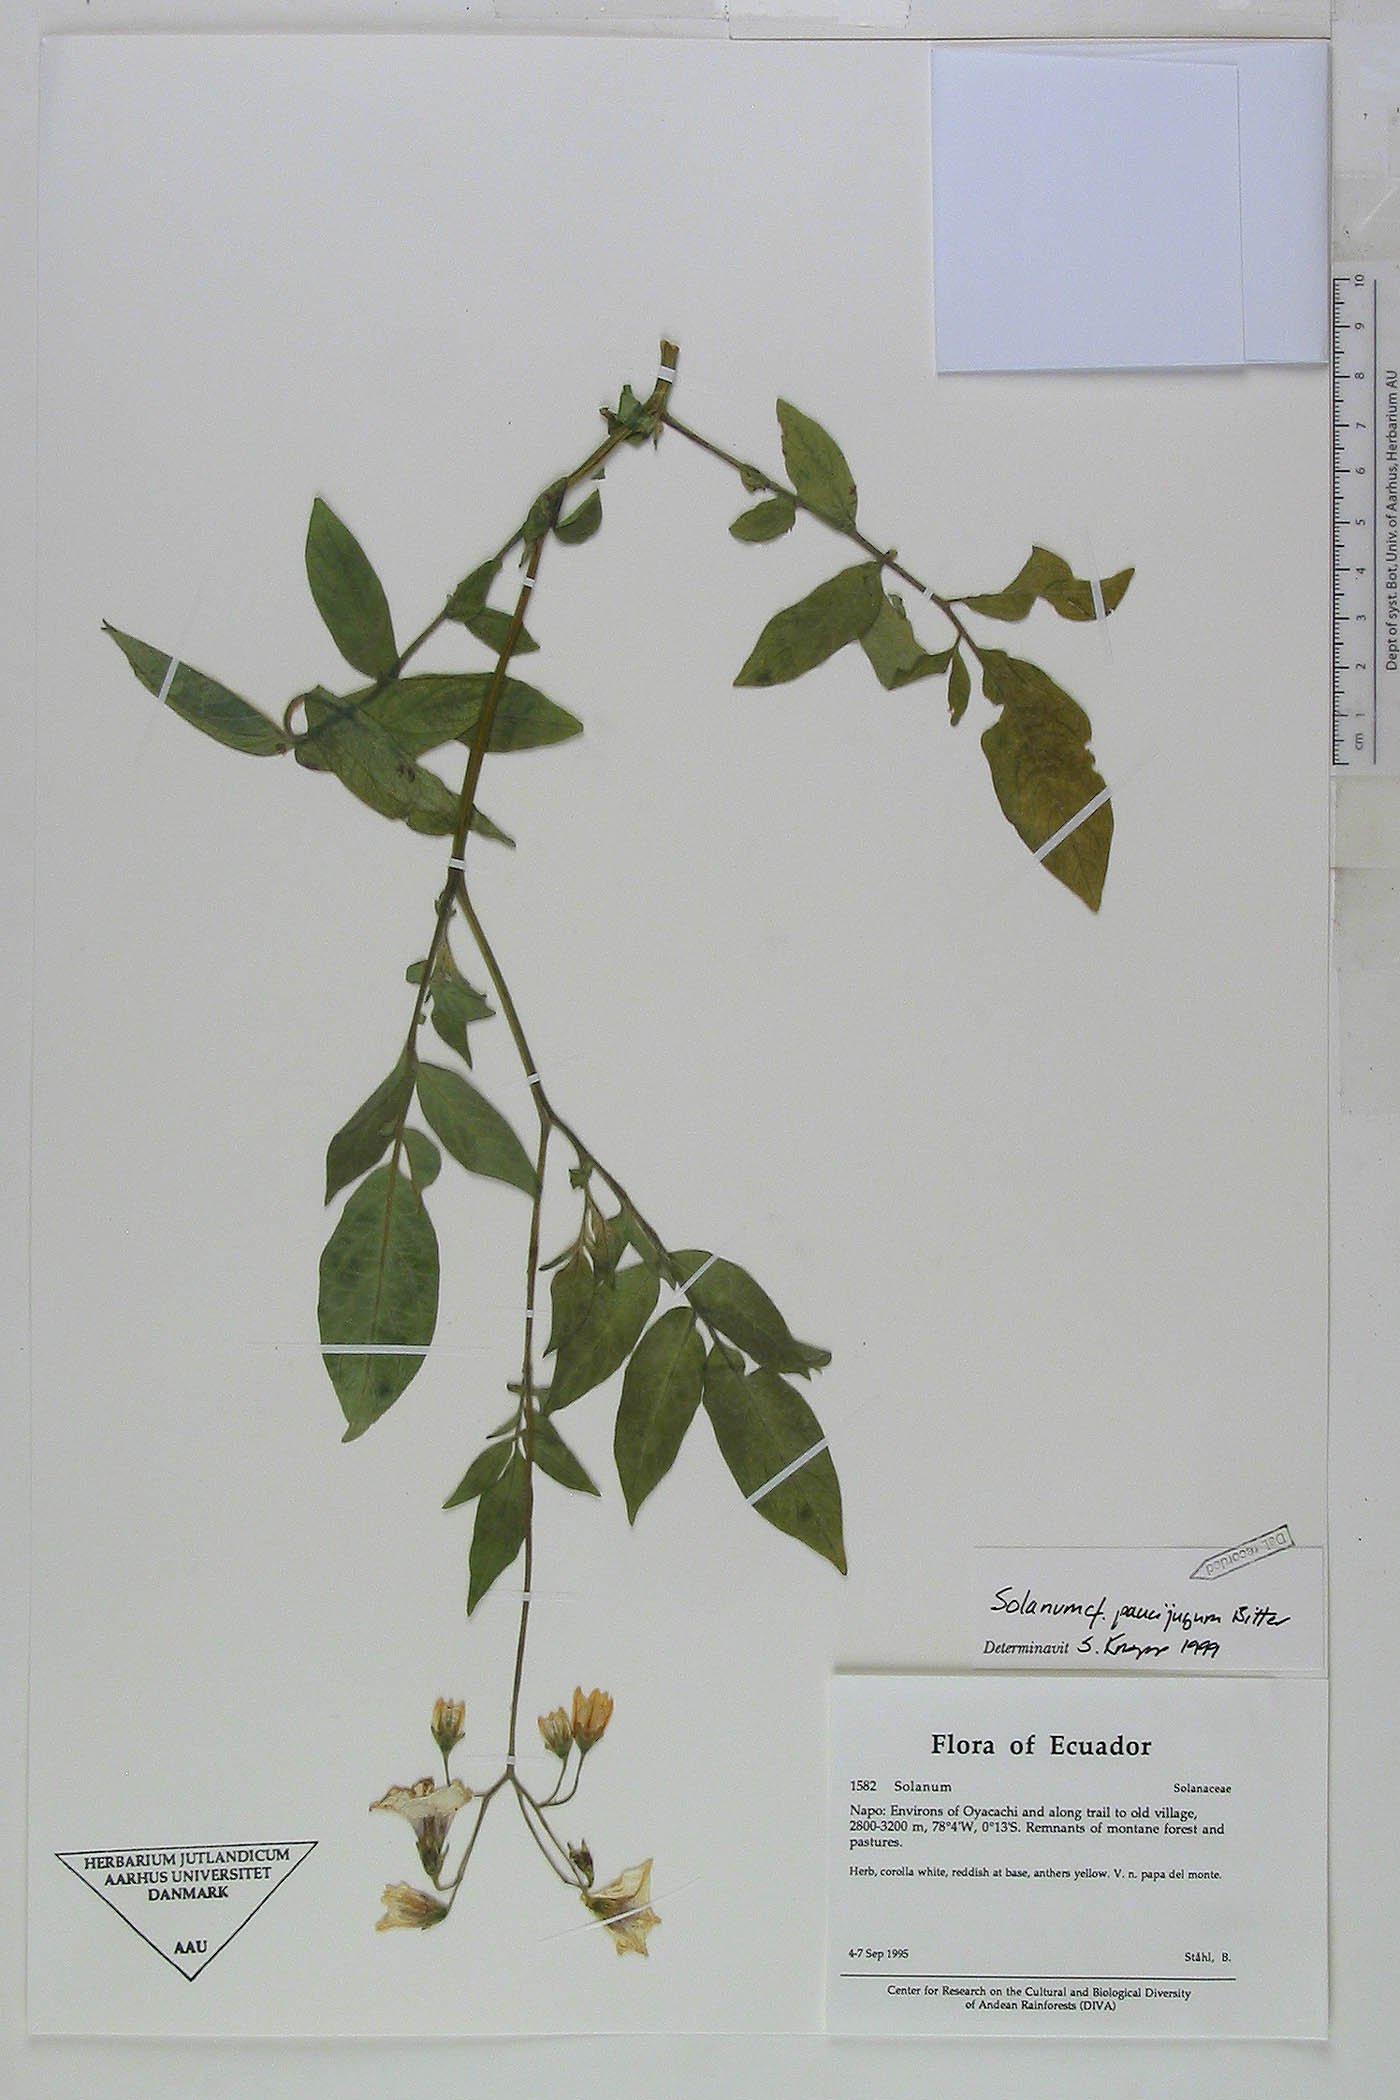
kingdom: Plantae
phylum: Tracheophyta
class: Magnoliopsida
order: Solanales
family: Solanaceae
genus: Solanum
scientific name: Solanum colombianum
